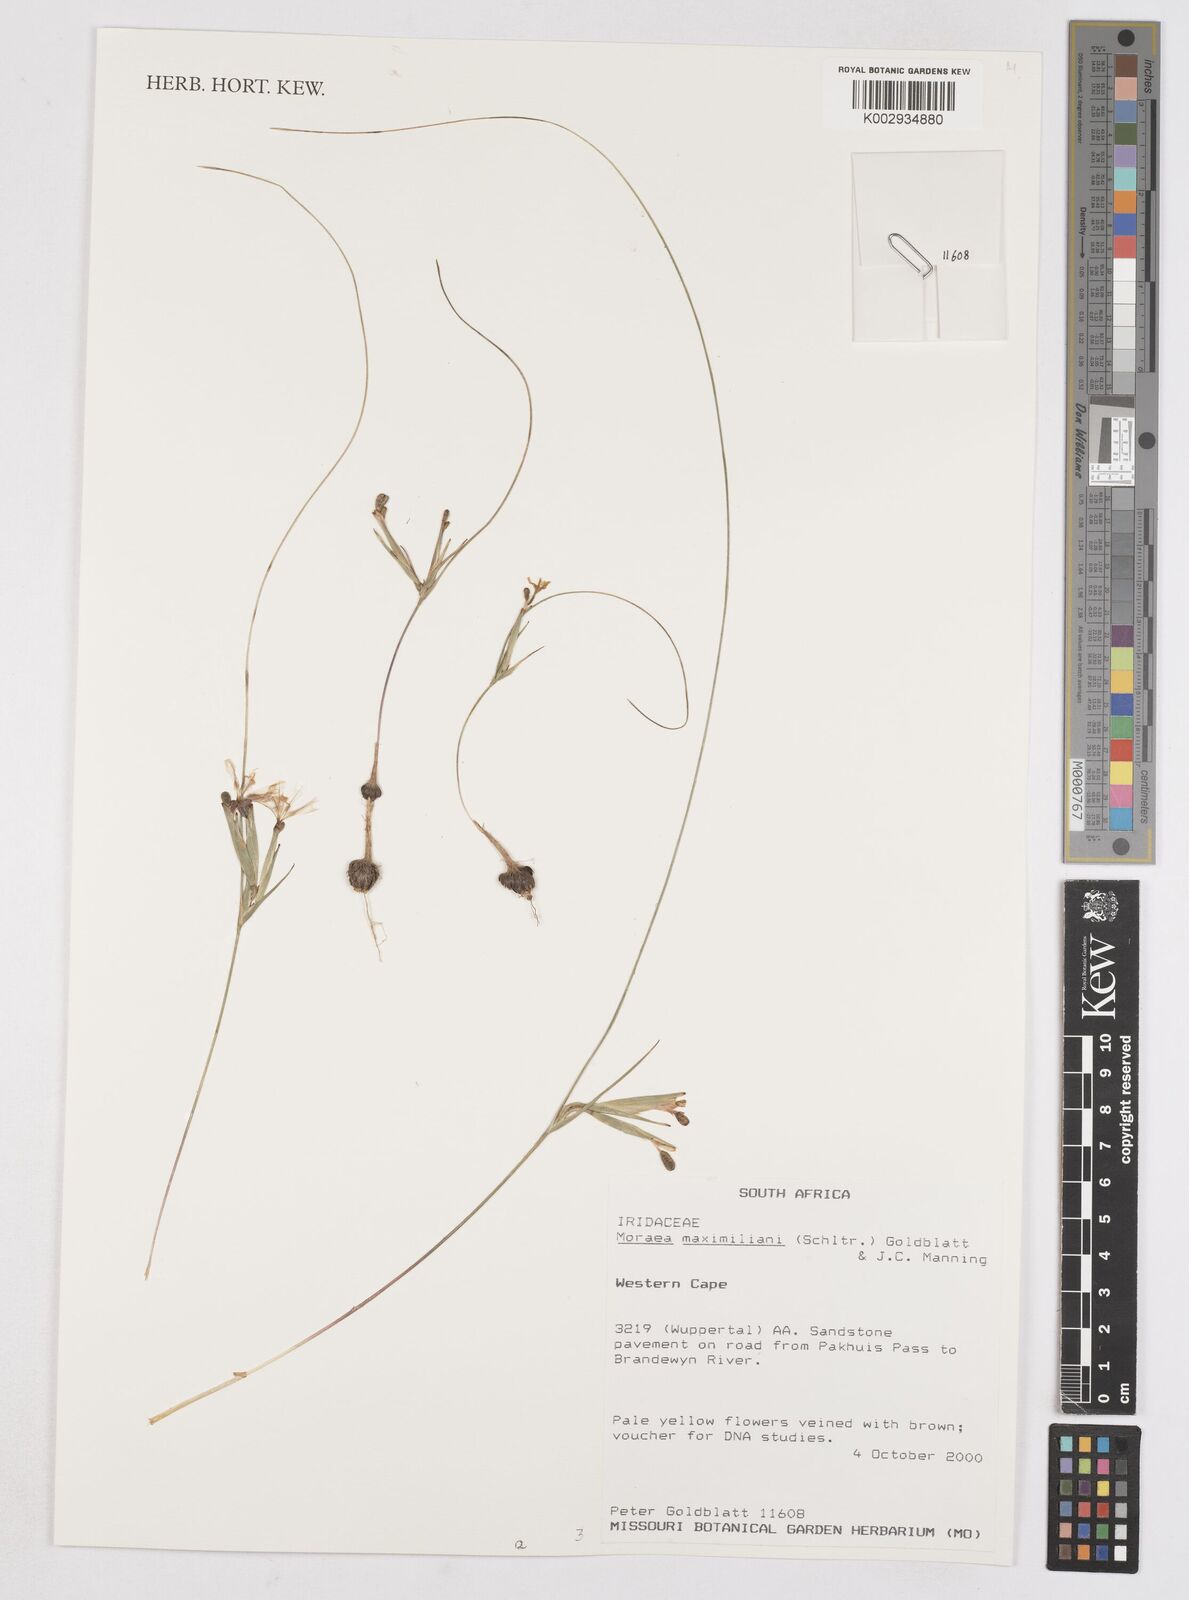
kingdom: Plantae
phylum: Tracheophyta
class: Liliopsida
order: Asparagales
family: Iridaceae
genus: Moraea
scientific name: Moraea maximiliani
